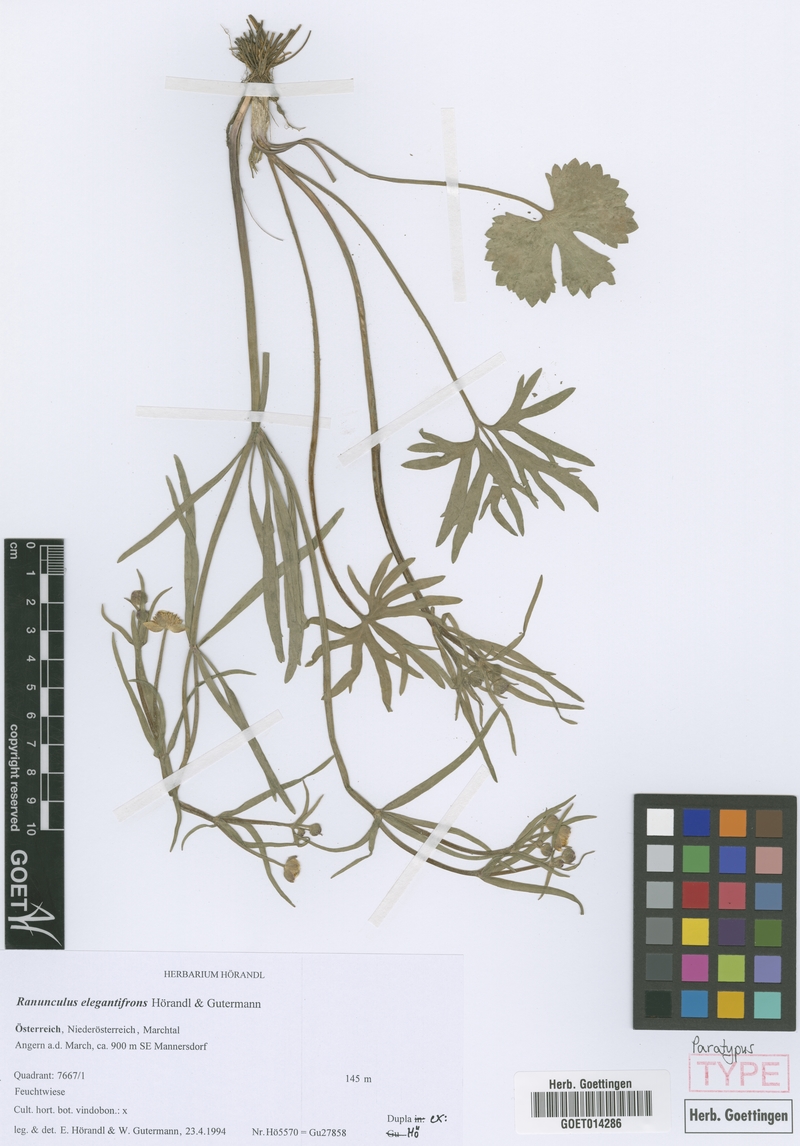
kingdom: Plantae
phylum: Tracheophyta
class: Magnoliopsida
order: Ranunculales
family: Ranunculaceae
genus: Ranunculus
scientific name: Ranunculus elegantifrons
